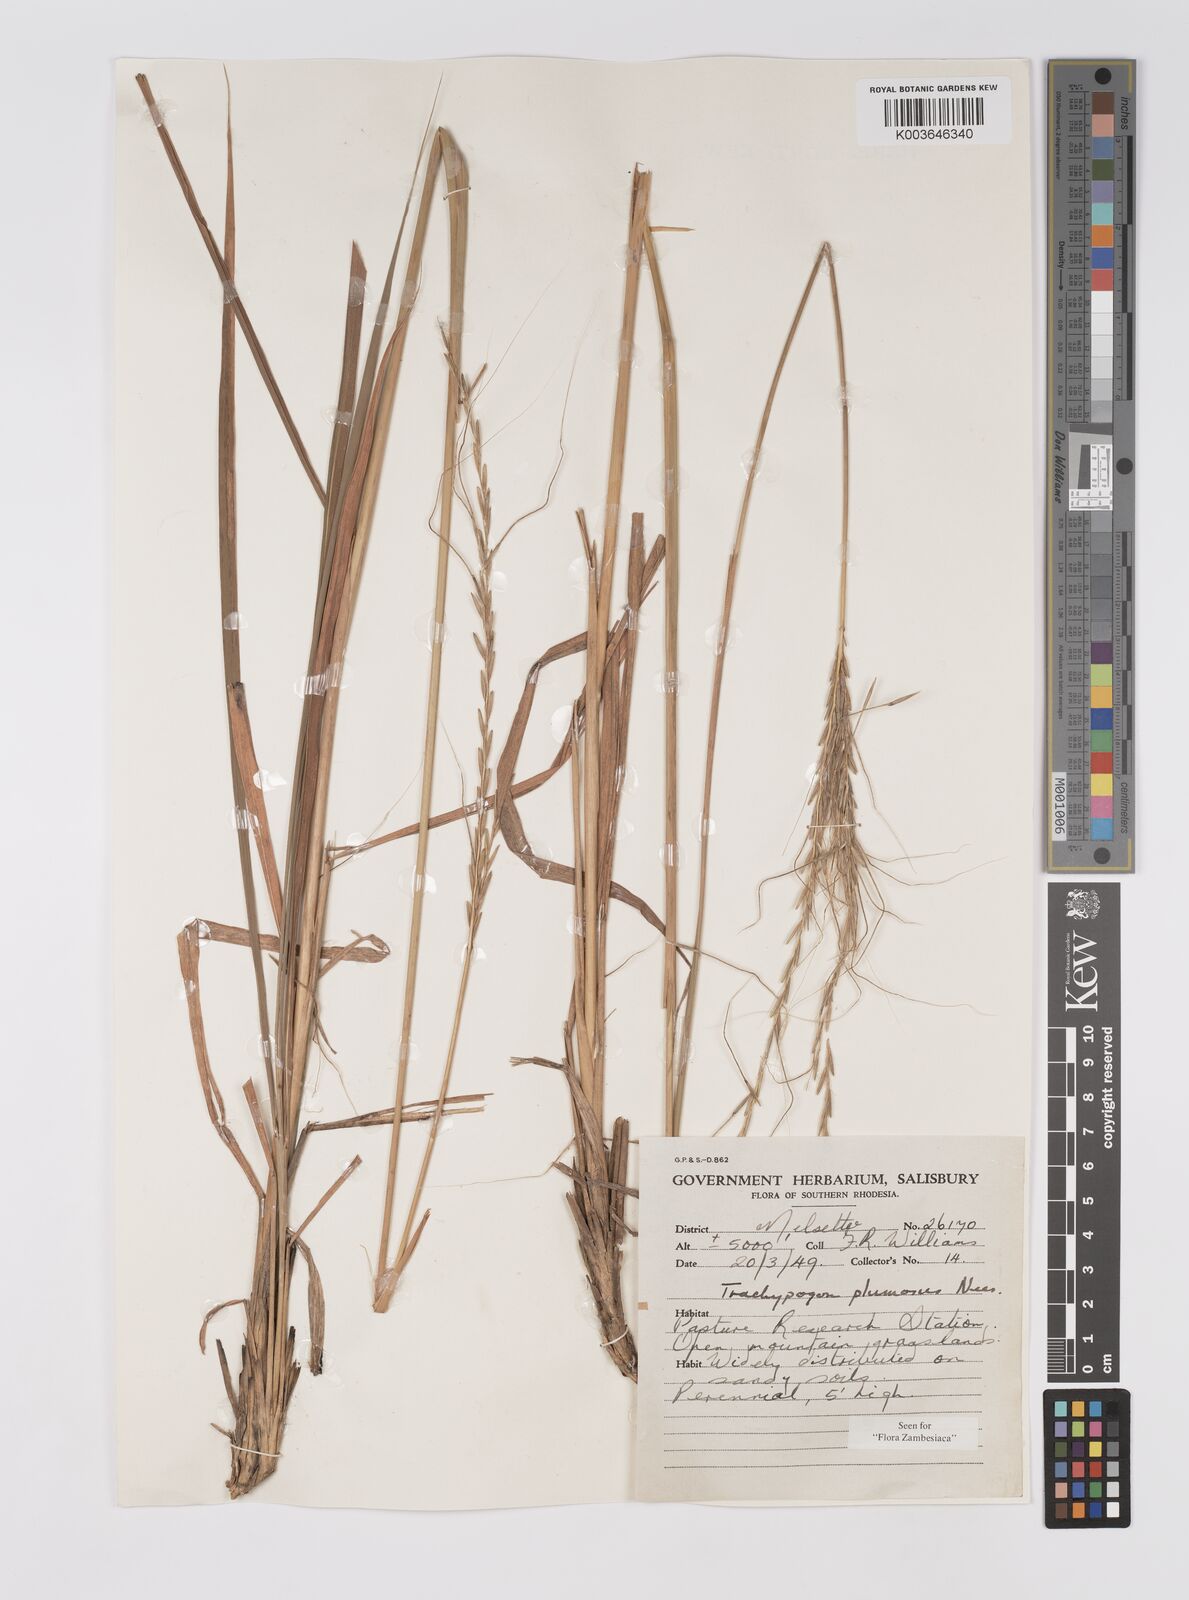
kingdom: Plantae
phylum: Tracheophyta
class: Liliopsida
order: Poales
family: Poaceae
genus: Trachypogon
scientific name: Trachypogon spicatus
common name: Crinkle-awn
